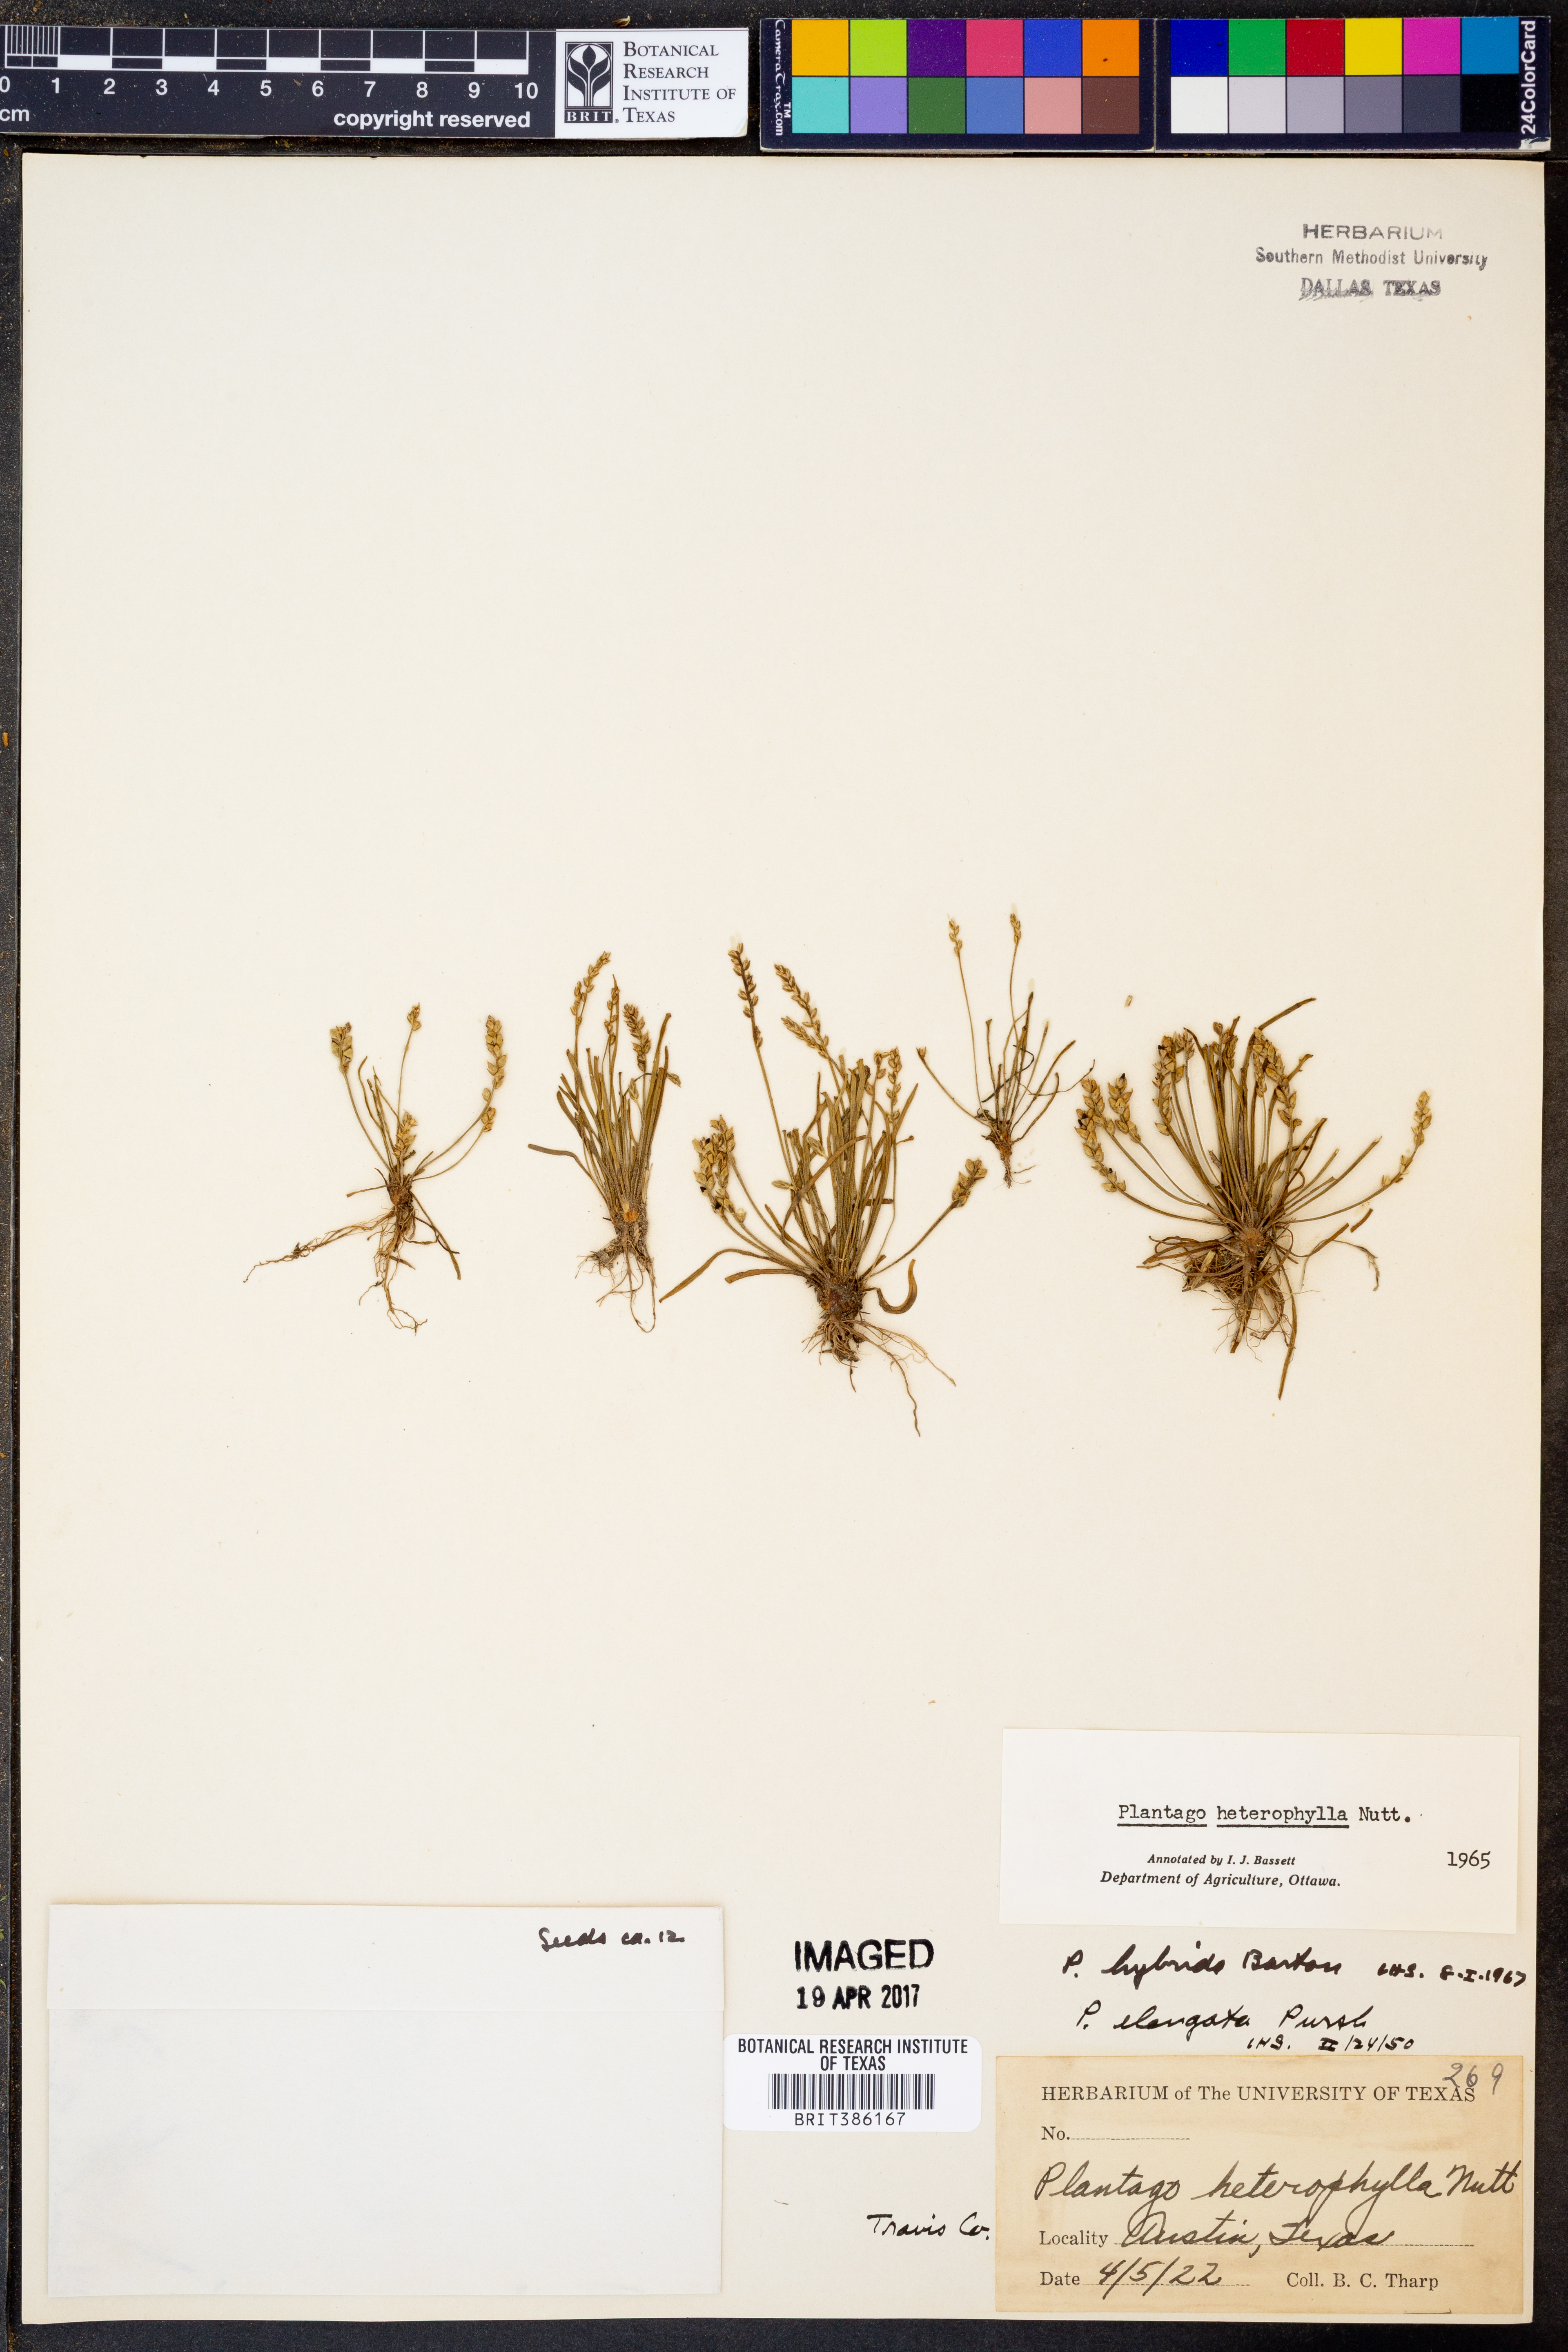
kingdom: Plantae
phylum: Tracheophyta
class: Magnoliopsida
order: Lamiales
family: Plantaginaceae
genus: Plantago
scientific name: Plantago heterophylla
